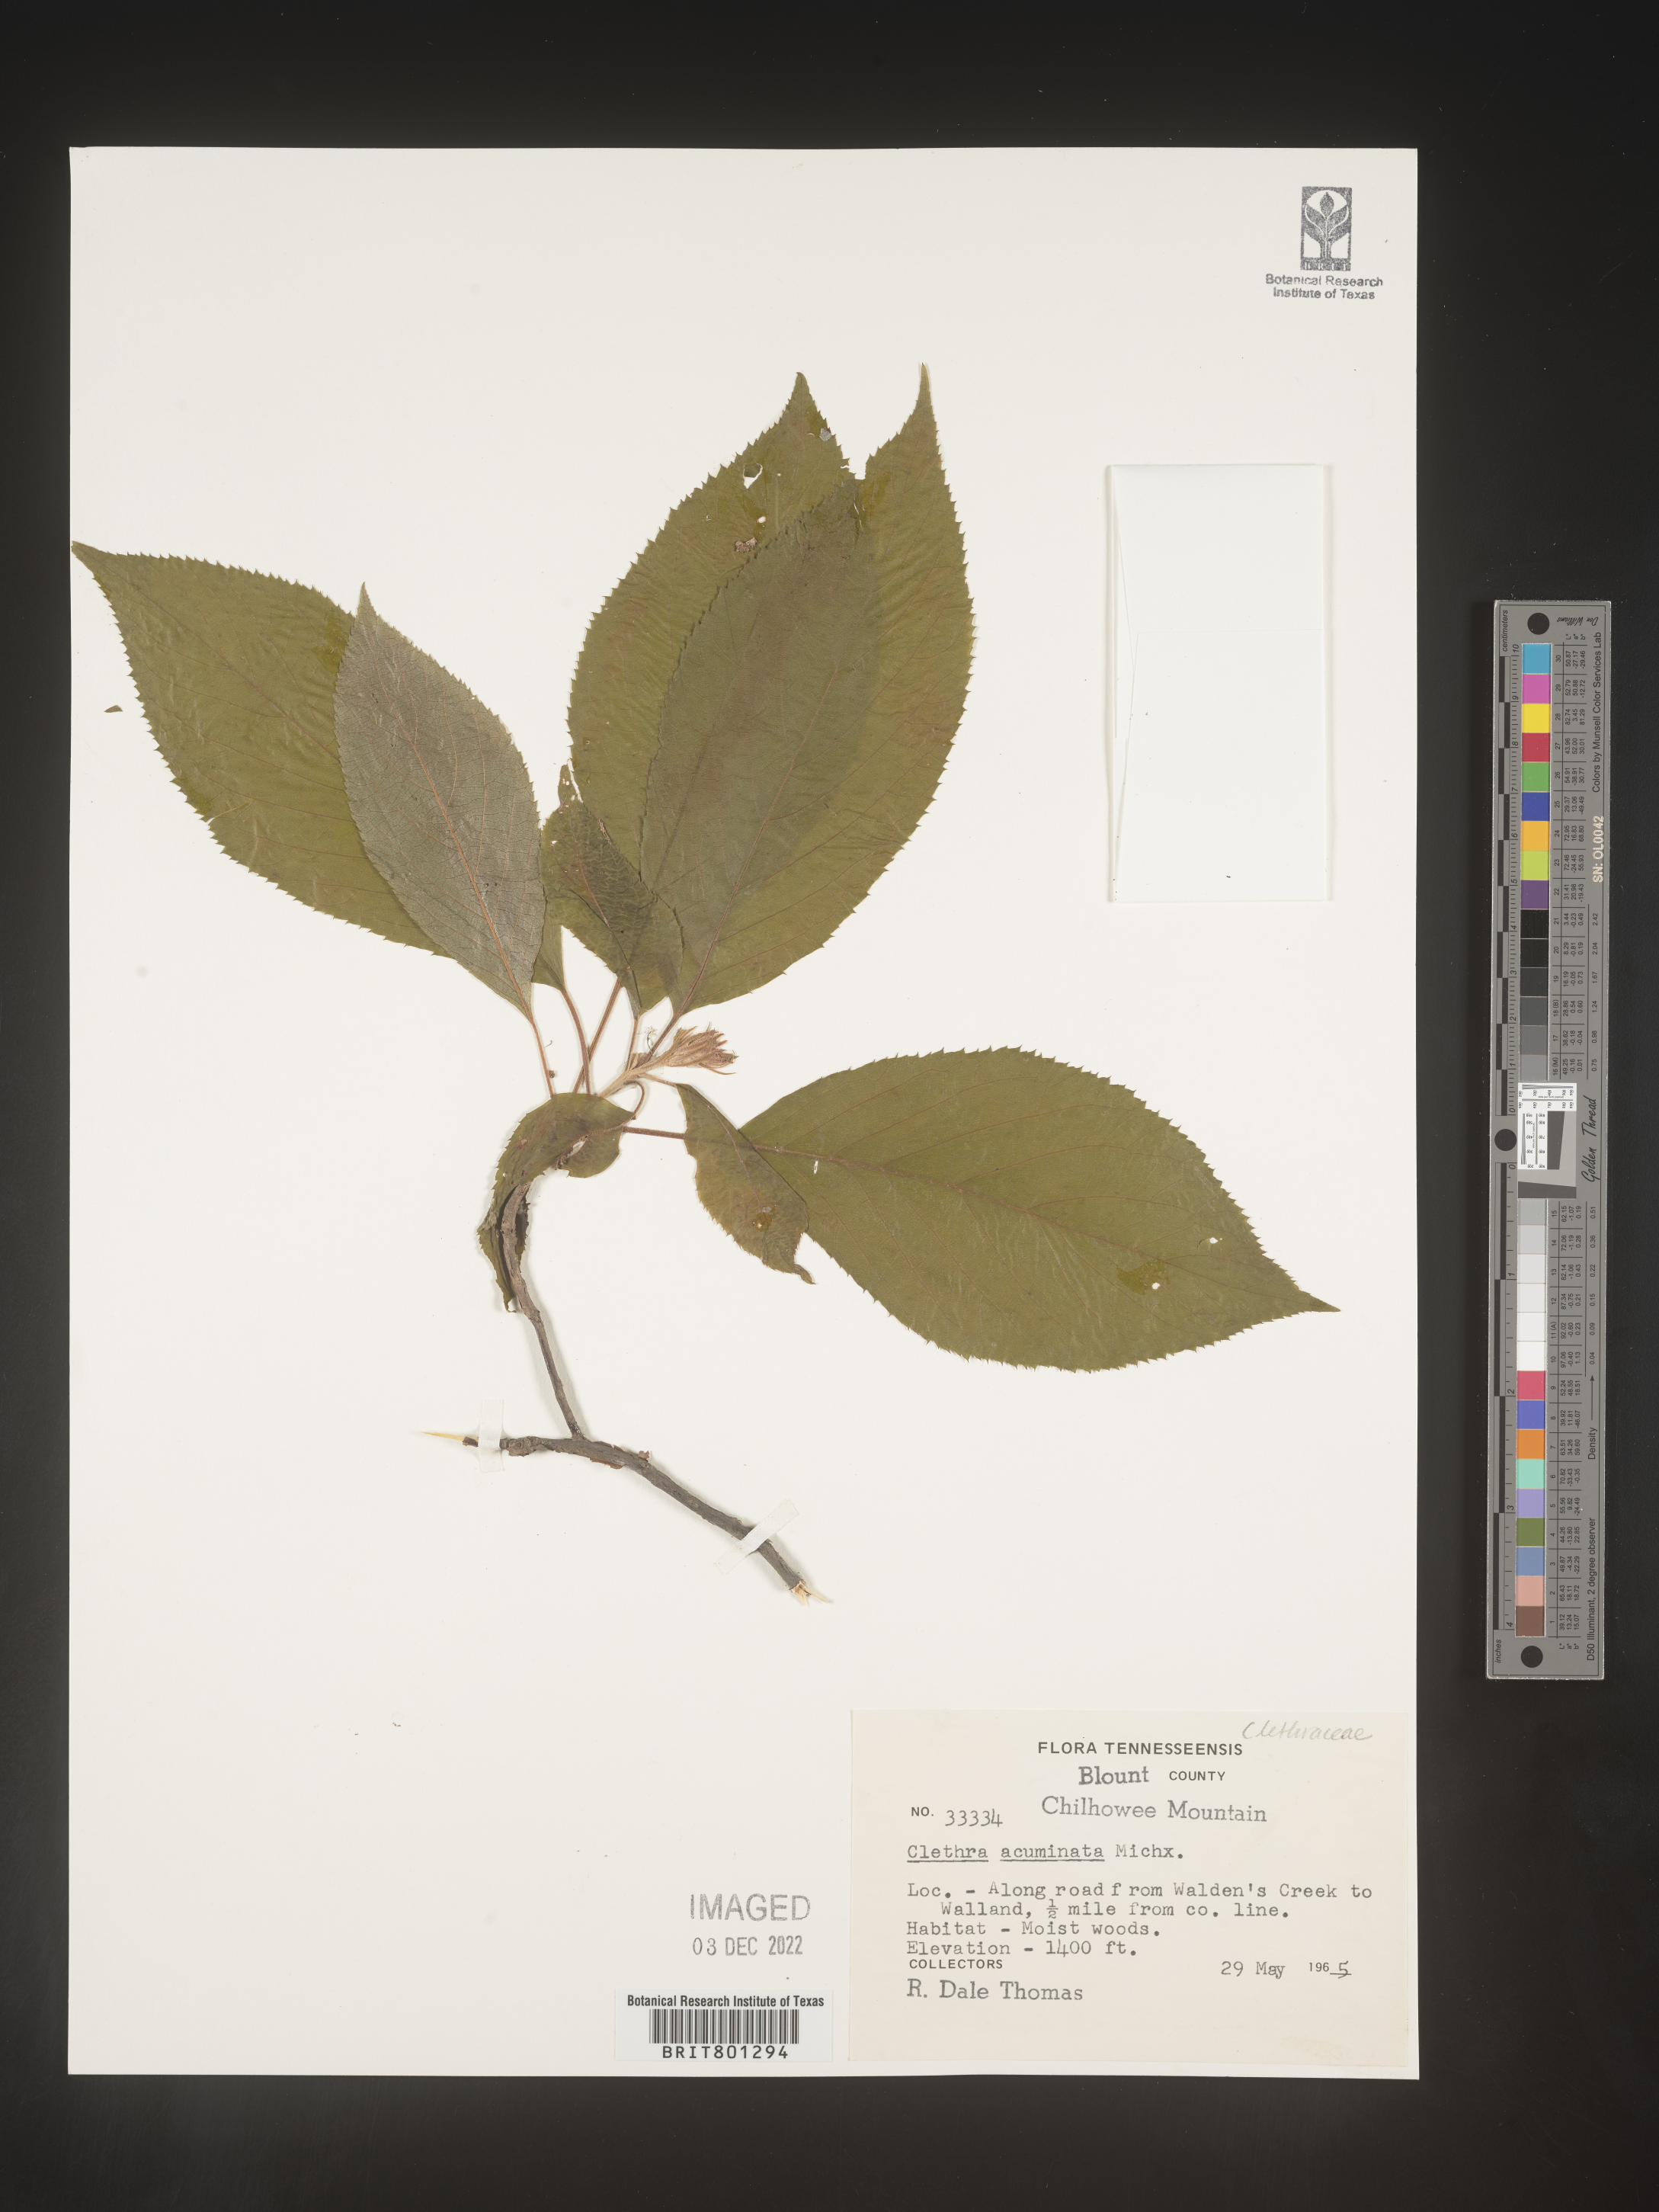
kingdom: Plantae
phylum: Tracheophyta
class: Magnoliopsida
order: Ericales
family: Clethraceae
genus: Clethra
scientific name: Clethra acuminata
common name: Mountain sweet pepperbush
